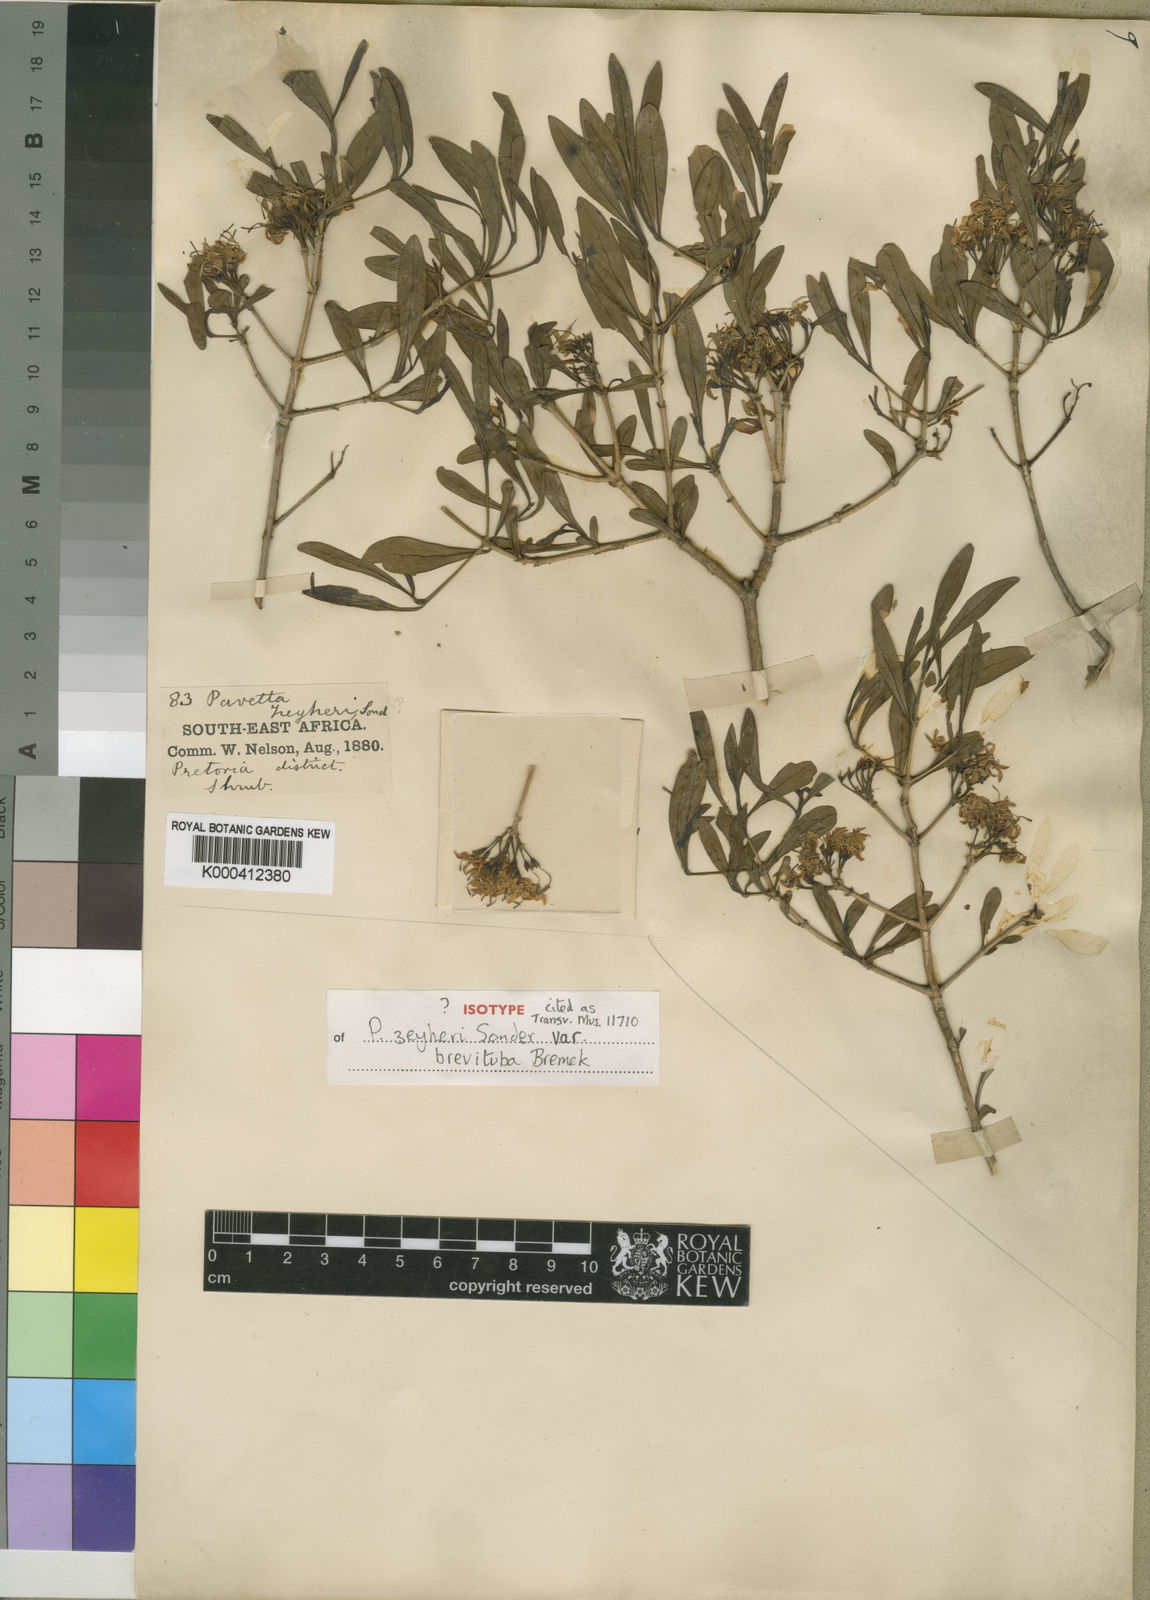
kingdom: Plantae
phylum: Tracheophyta
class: Magnoliopsida
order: Gentianales
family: Rubiaceae
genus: Pavetta
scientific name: Pavetta zeyheri
